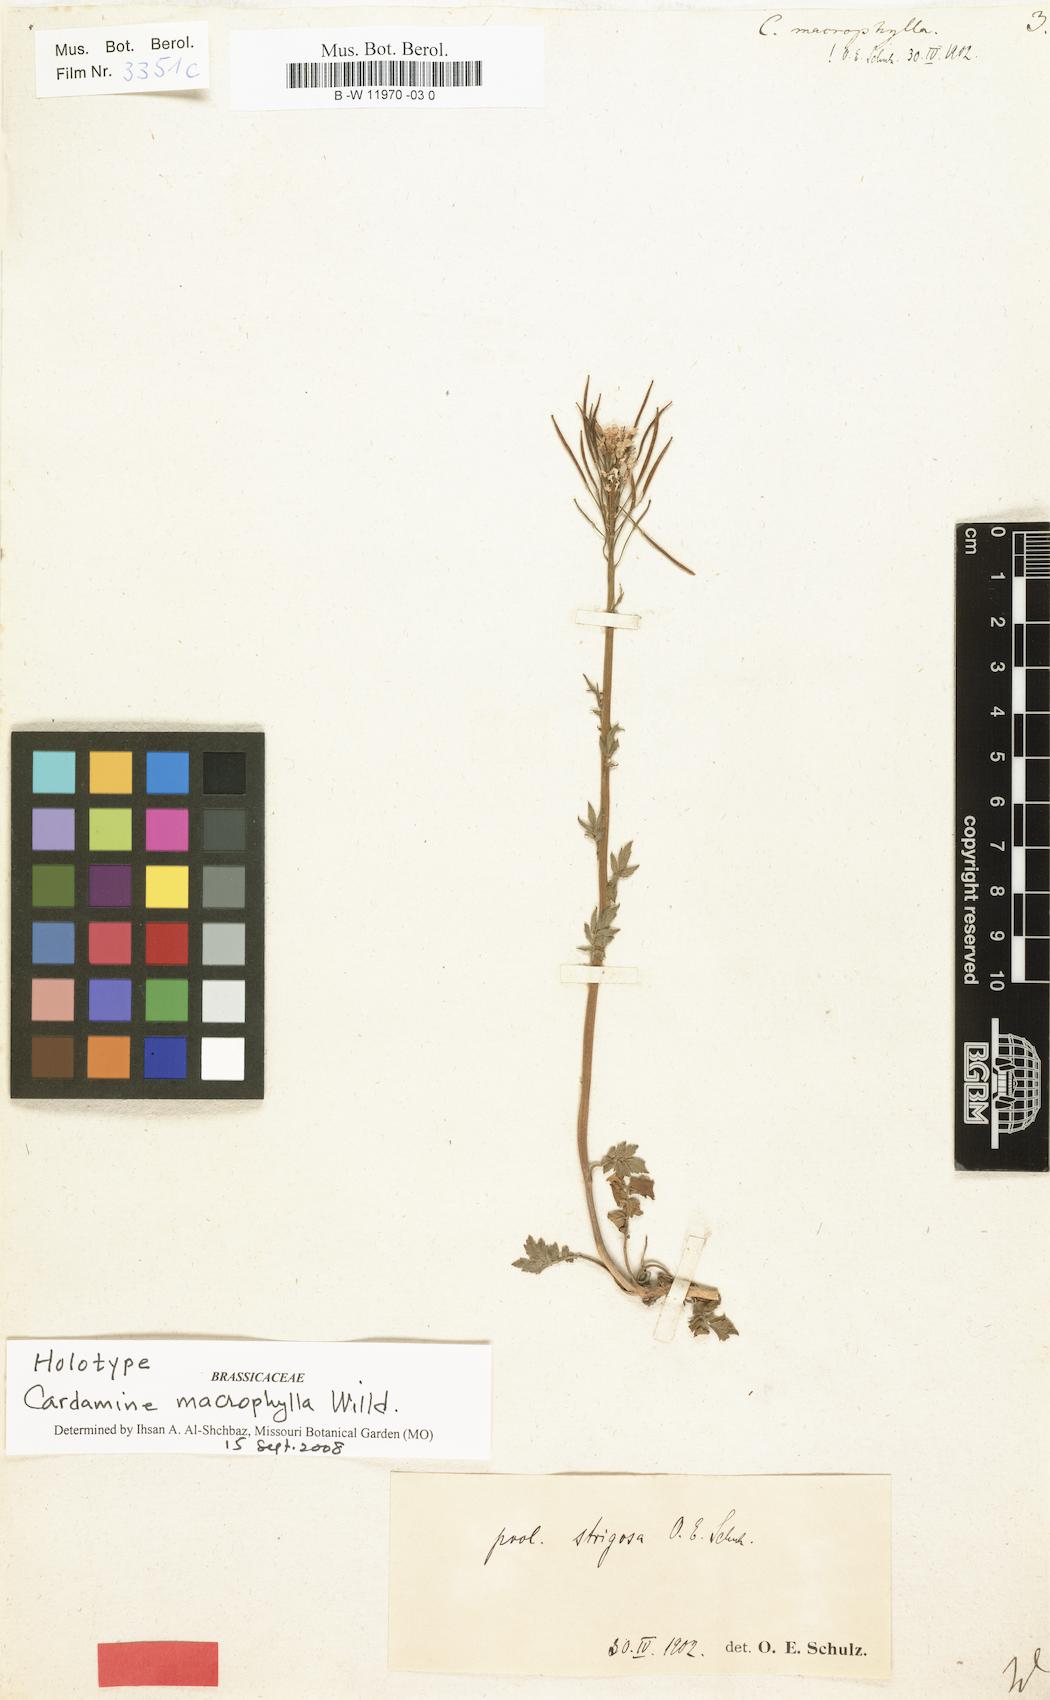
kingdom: Plantae
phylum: Tracheophyta
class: Magnoliopsida
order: Brassicales
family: Brassicaceae
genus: Cardamine
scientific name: Cardamine amara
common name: Large bitter-cress
